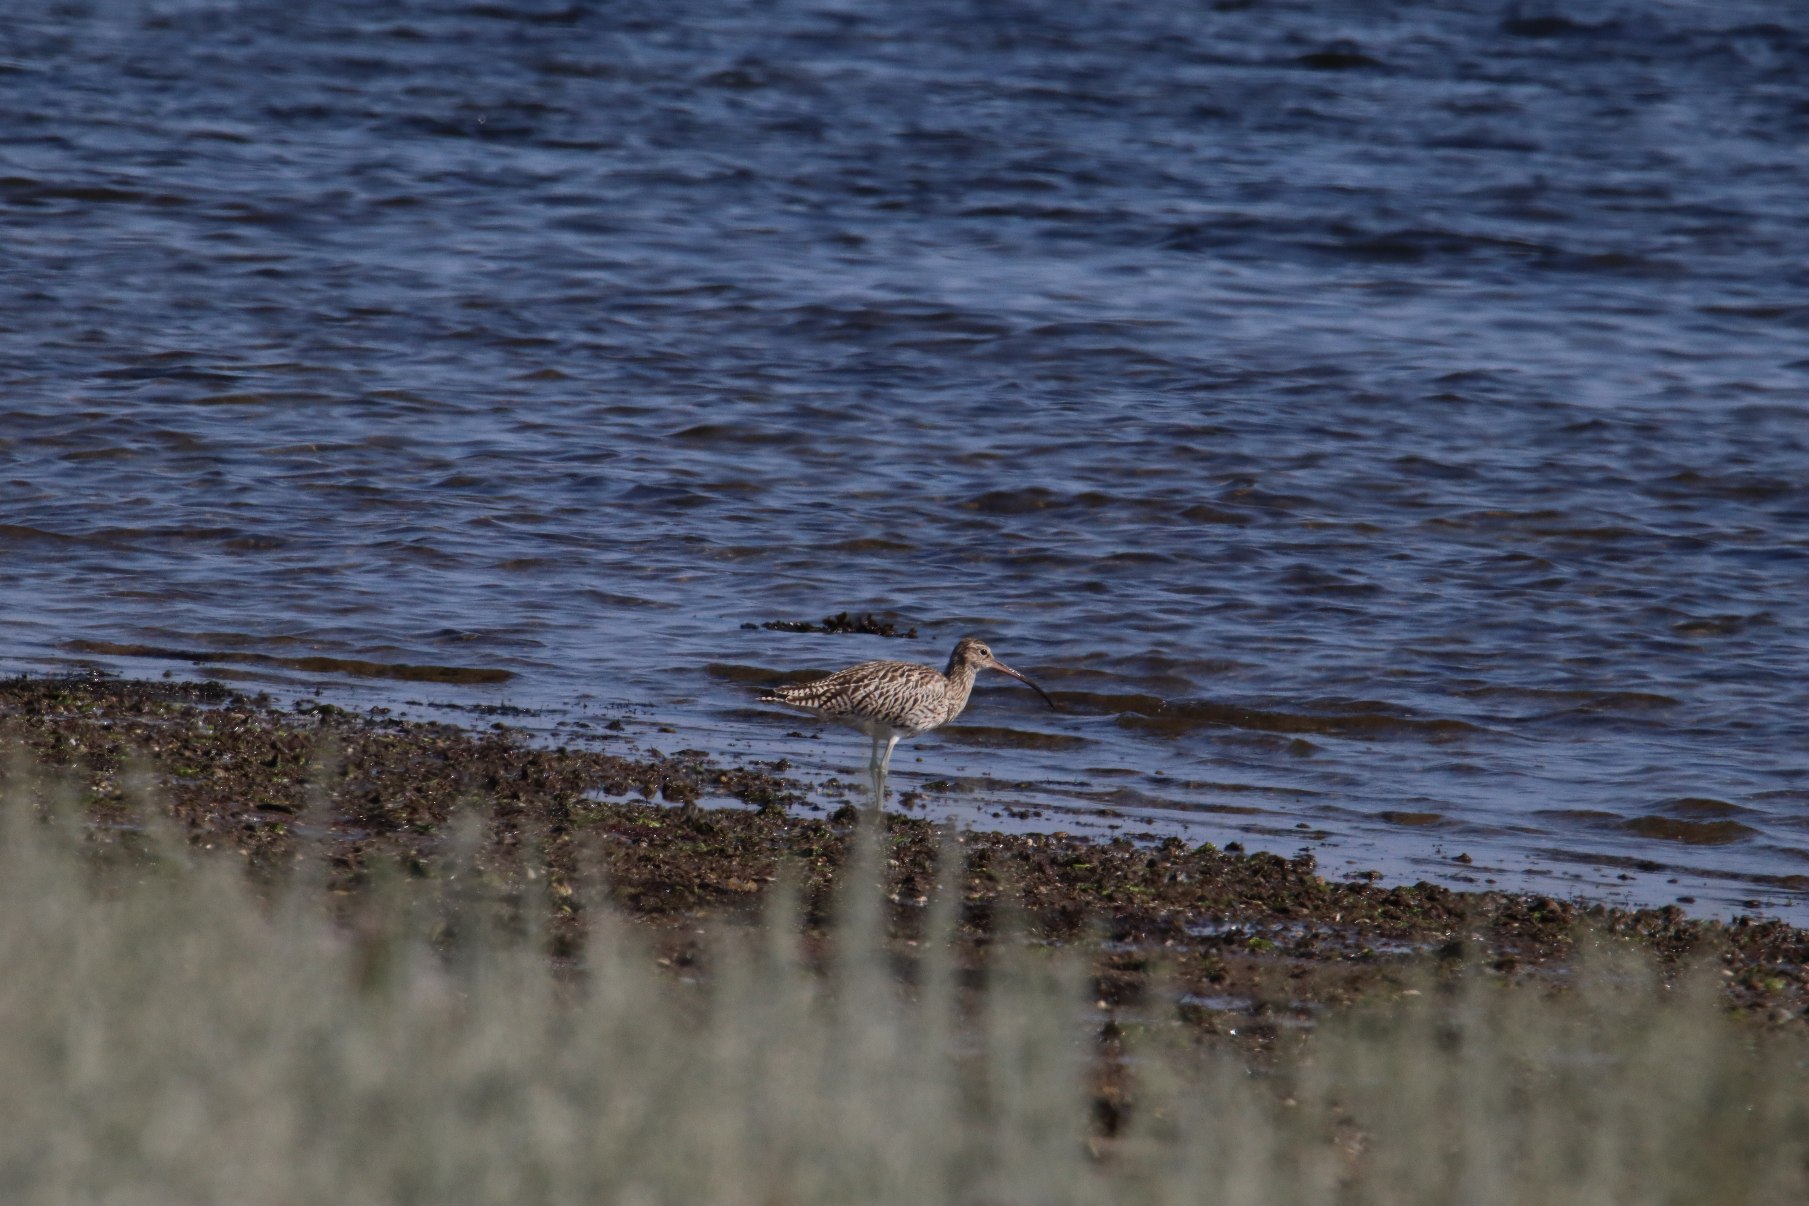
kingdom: Animalia
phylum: Chordata
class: Aves
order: Charadriiformes
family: Scolopacidae
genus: Numenius
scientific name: Numenius arquata
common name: Storspove
